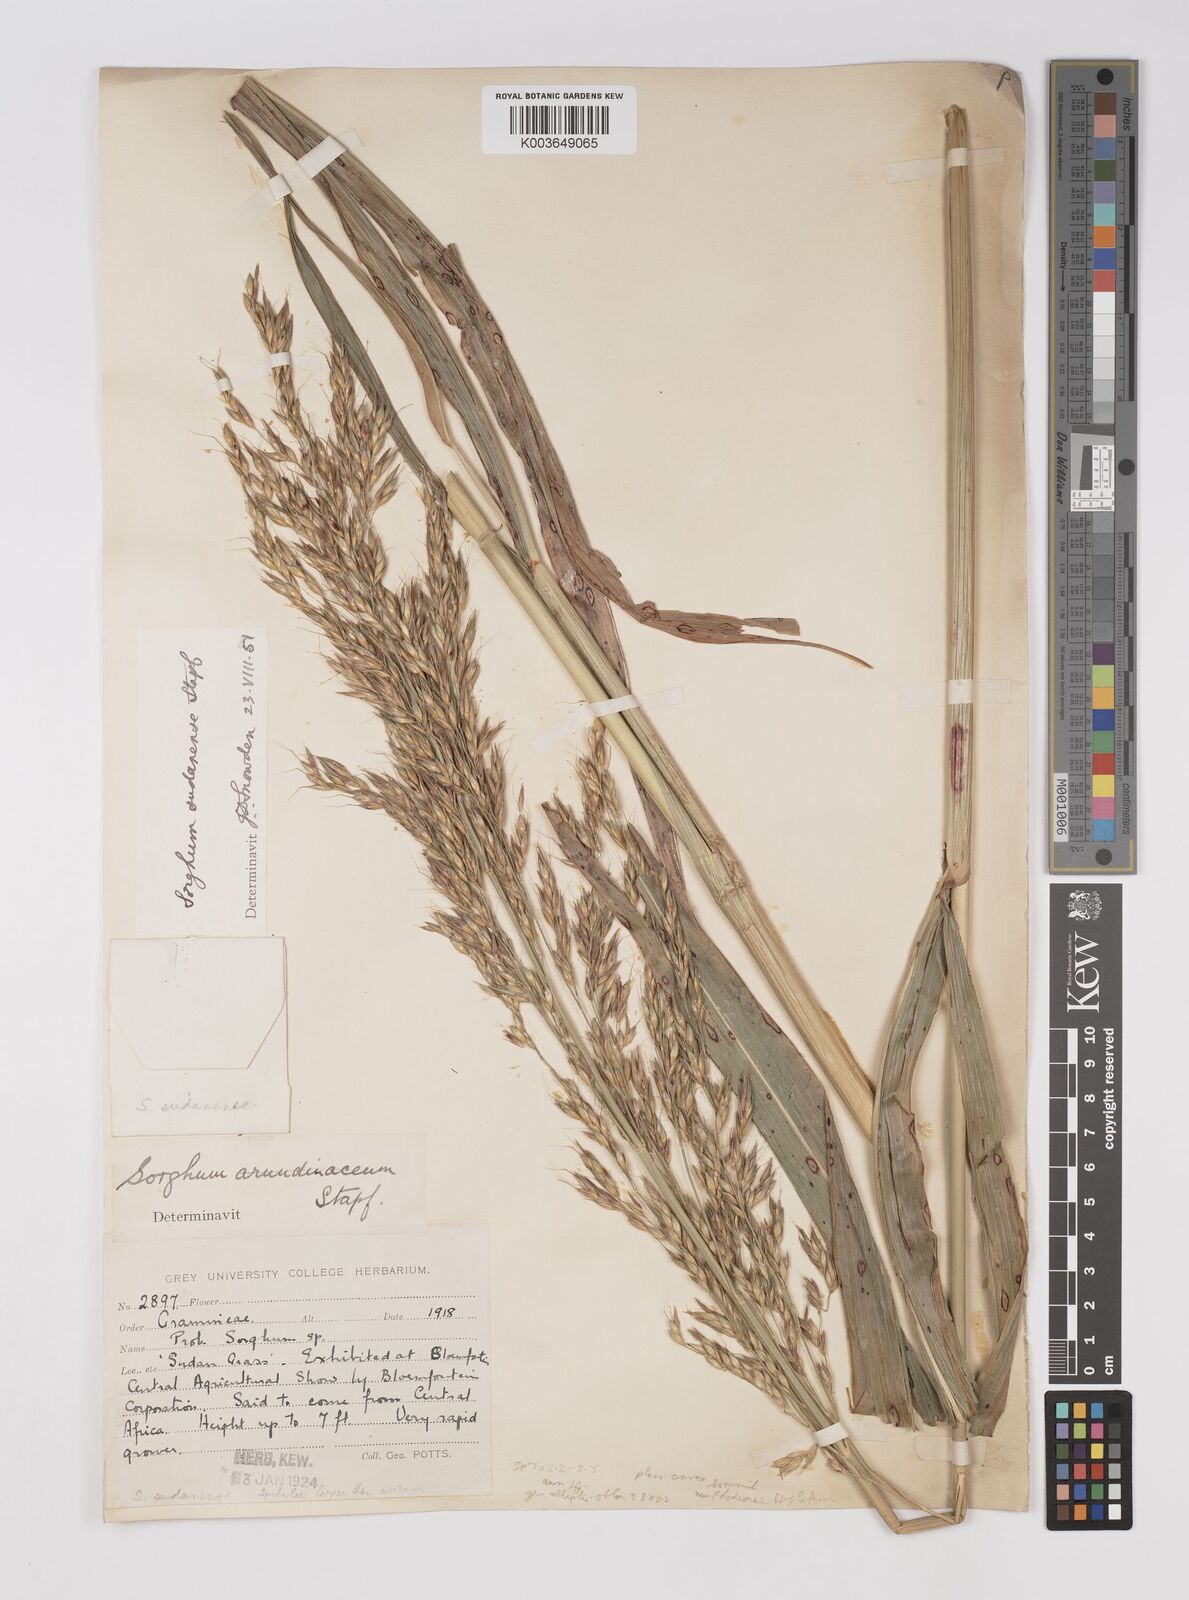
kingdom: Plantae
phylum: Tracheophyta
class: Liliopsida
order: Poales
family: Poaceae
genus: Sorghum
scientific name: Sorghum drummondii
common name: Sudangrass
